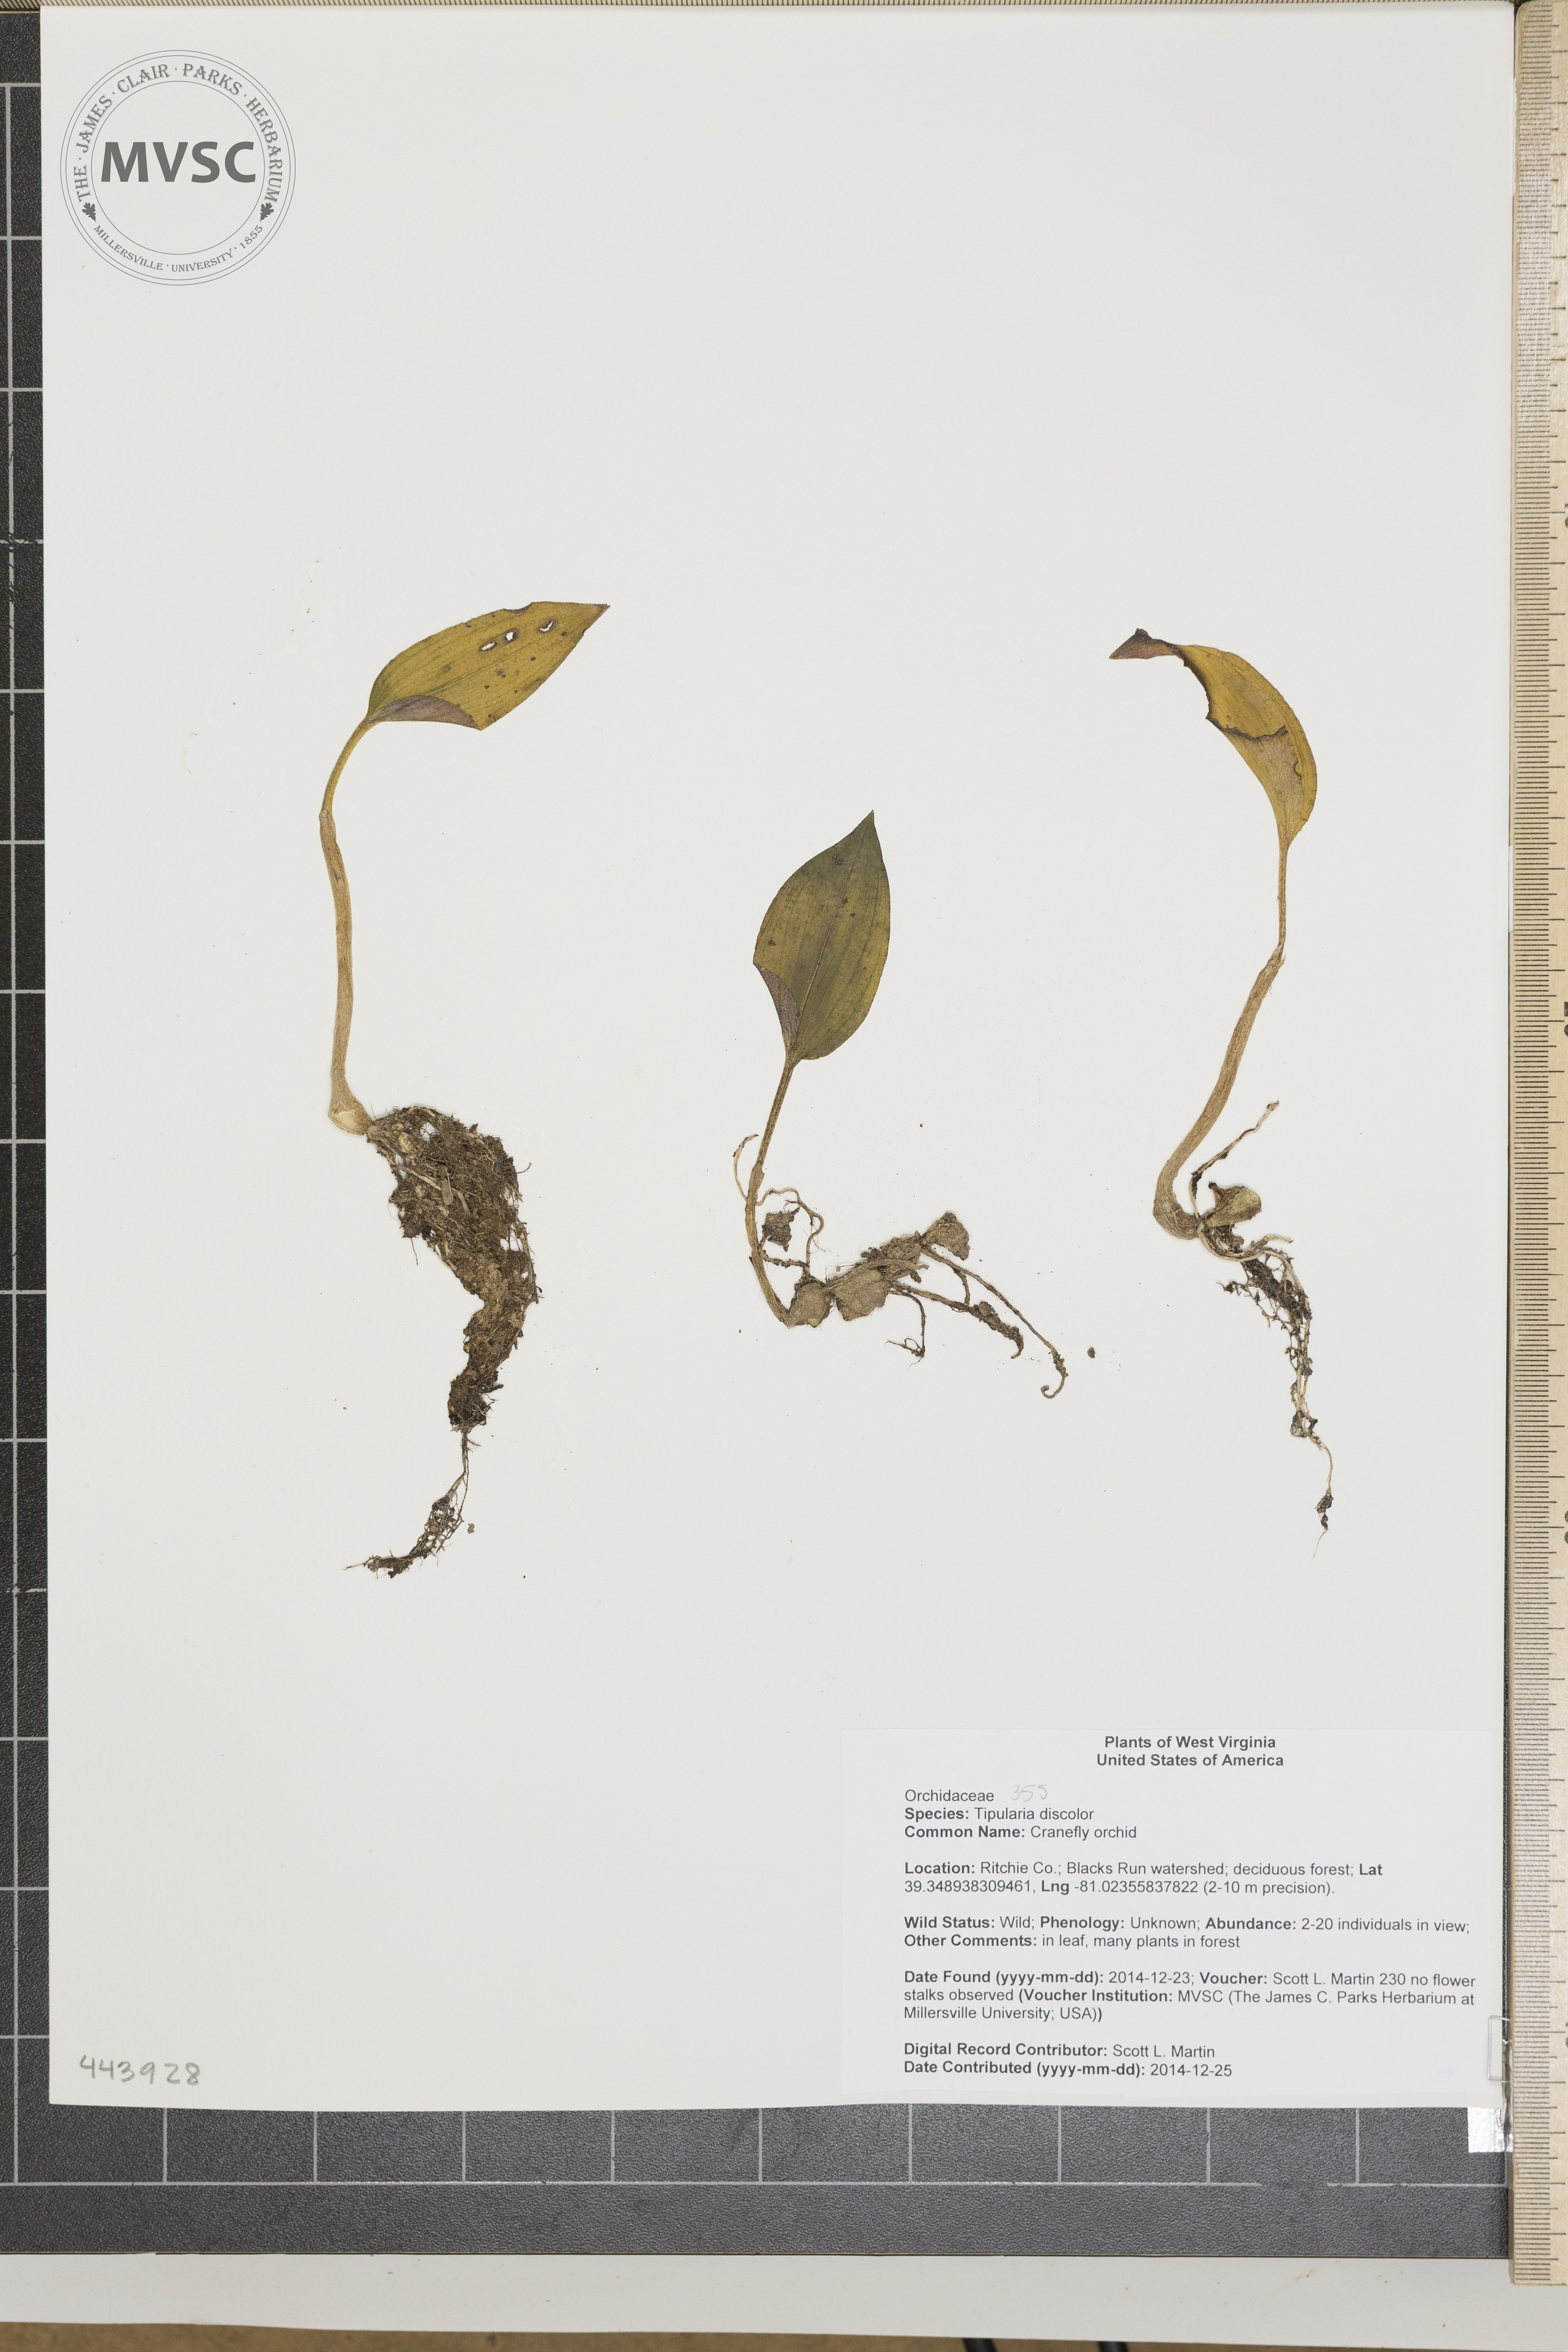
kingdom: Plantae
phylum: Tracheophyta
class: Liliopsida
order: Asparagales
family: Orchidaceae
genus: Tipularia
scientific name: Tipularia discolor
